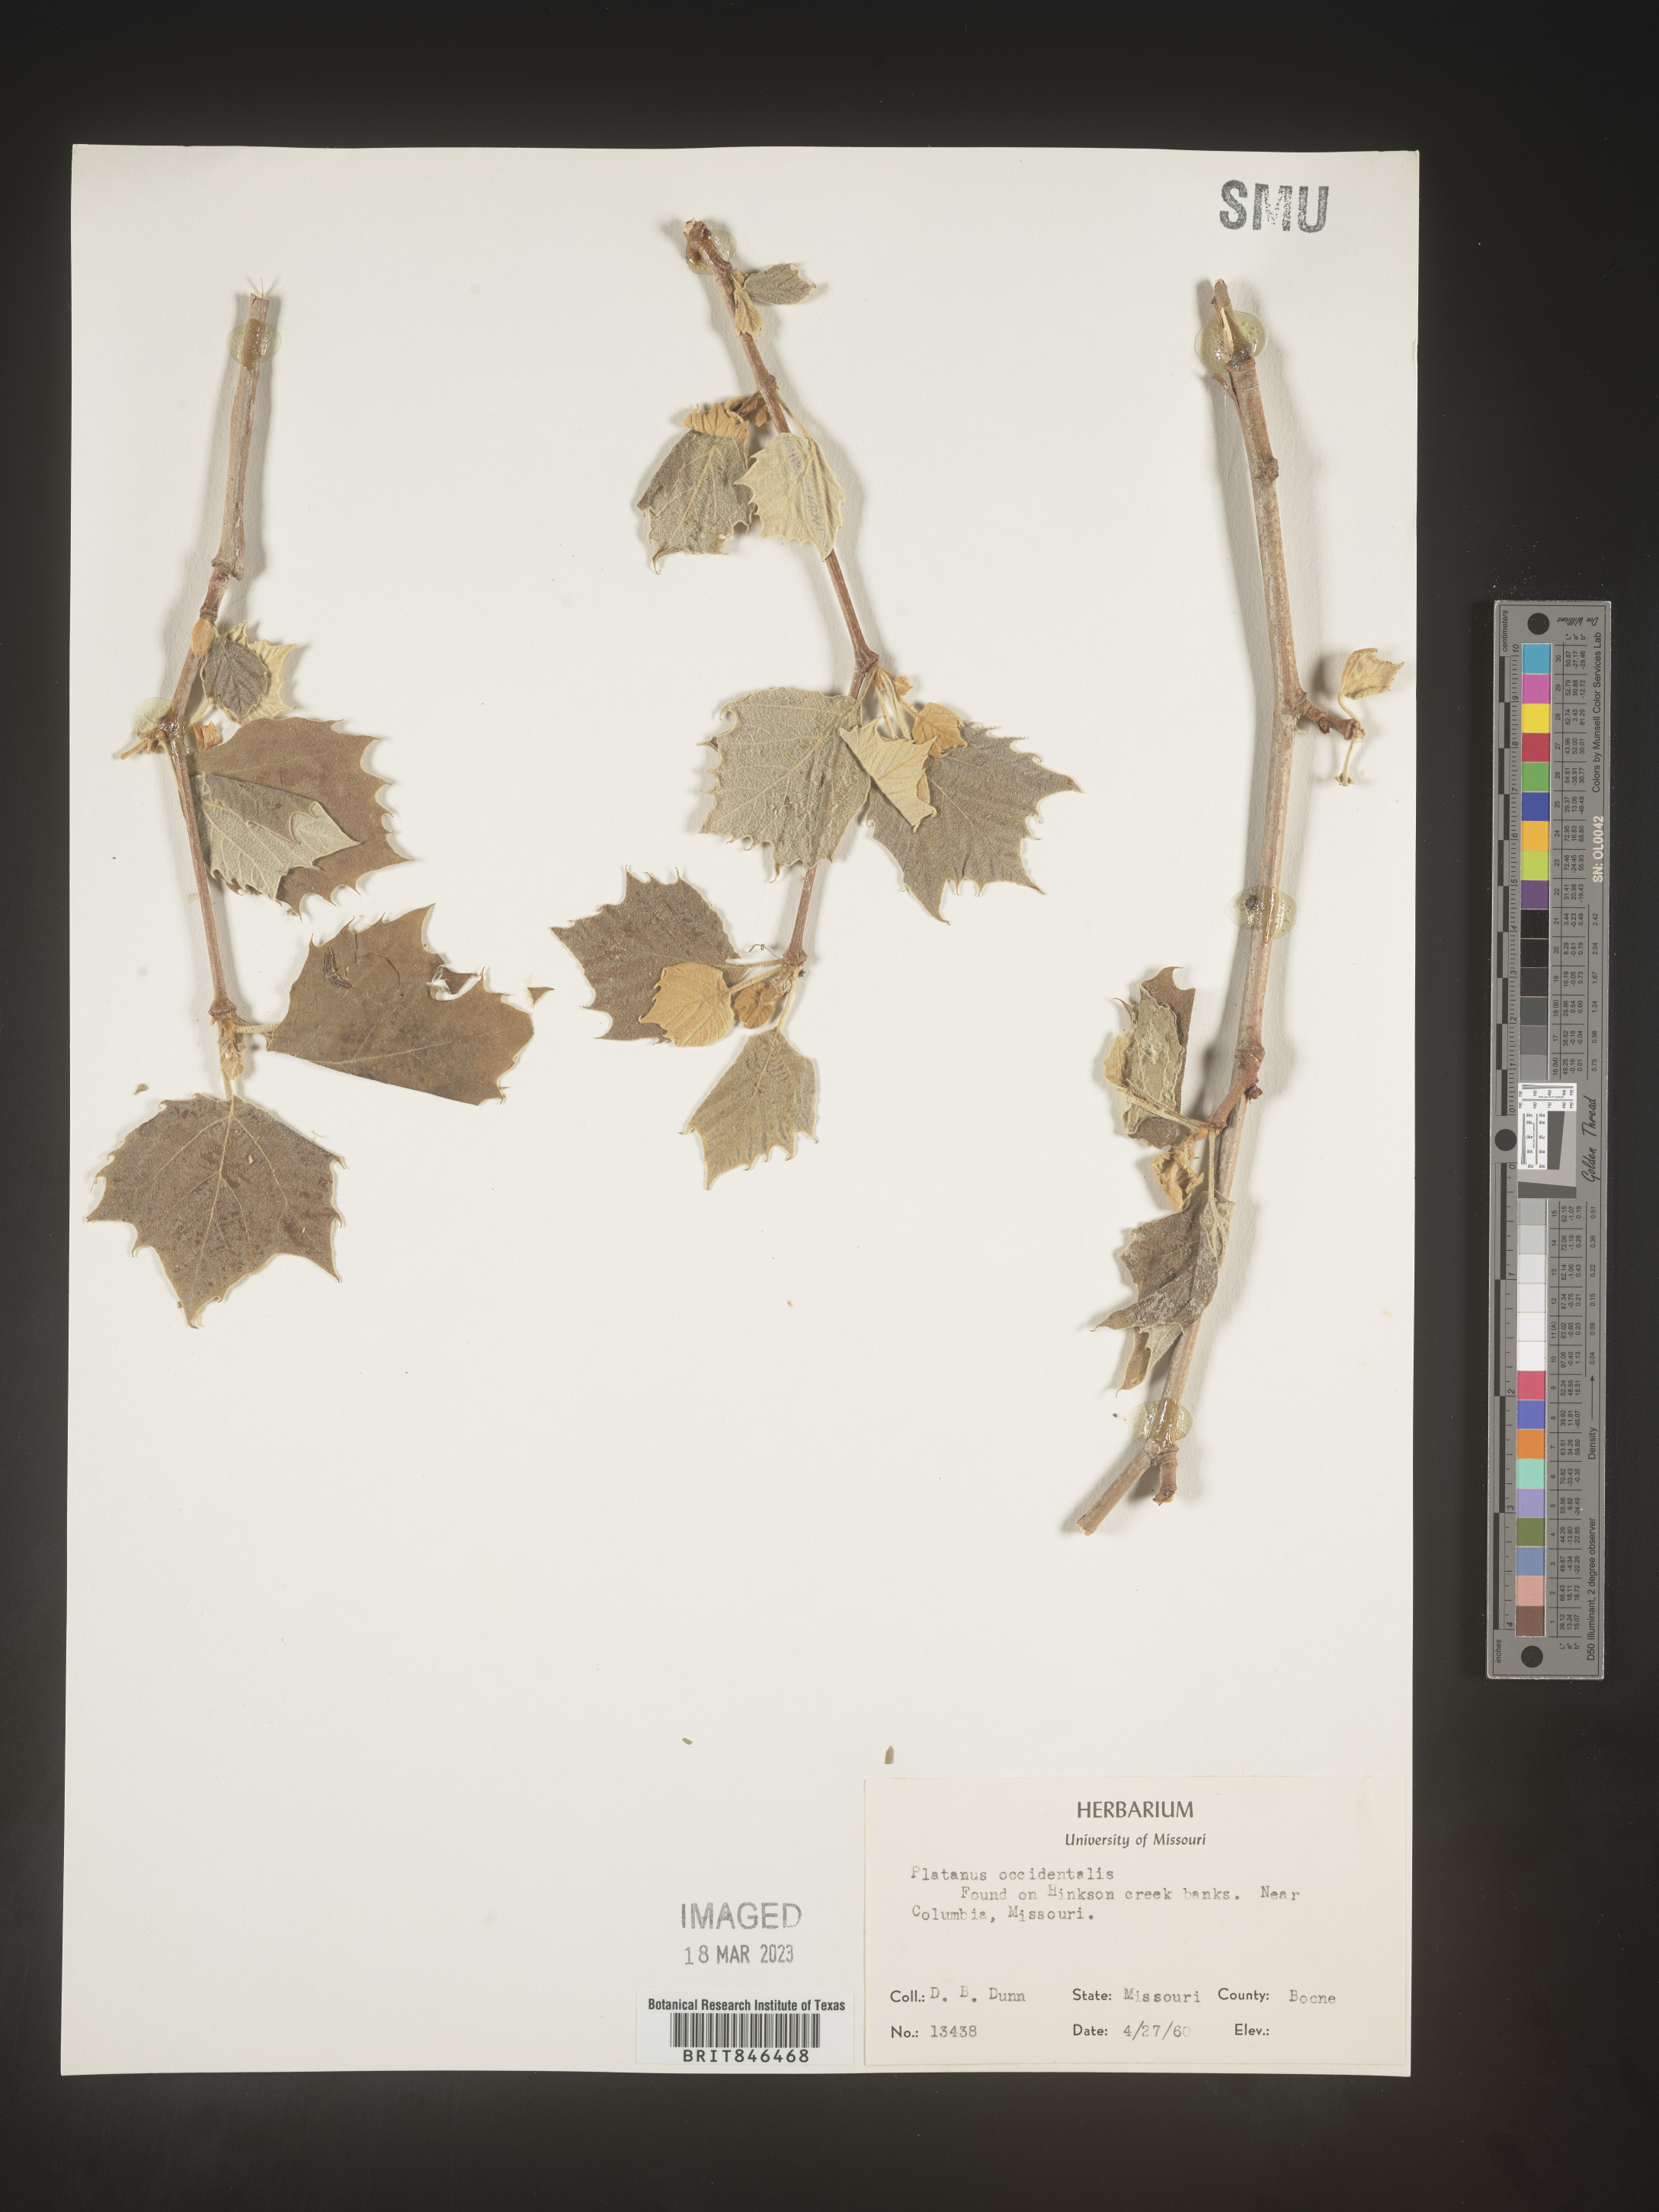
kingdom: Plantae
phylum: Tracheophyta
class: Magnoliopsida
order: Proteales
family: Platanaceae
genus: Platanus
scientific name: Platanus occidentalis
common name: American sycamore
